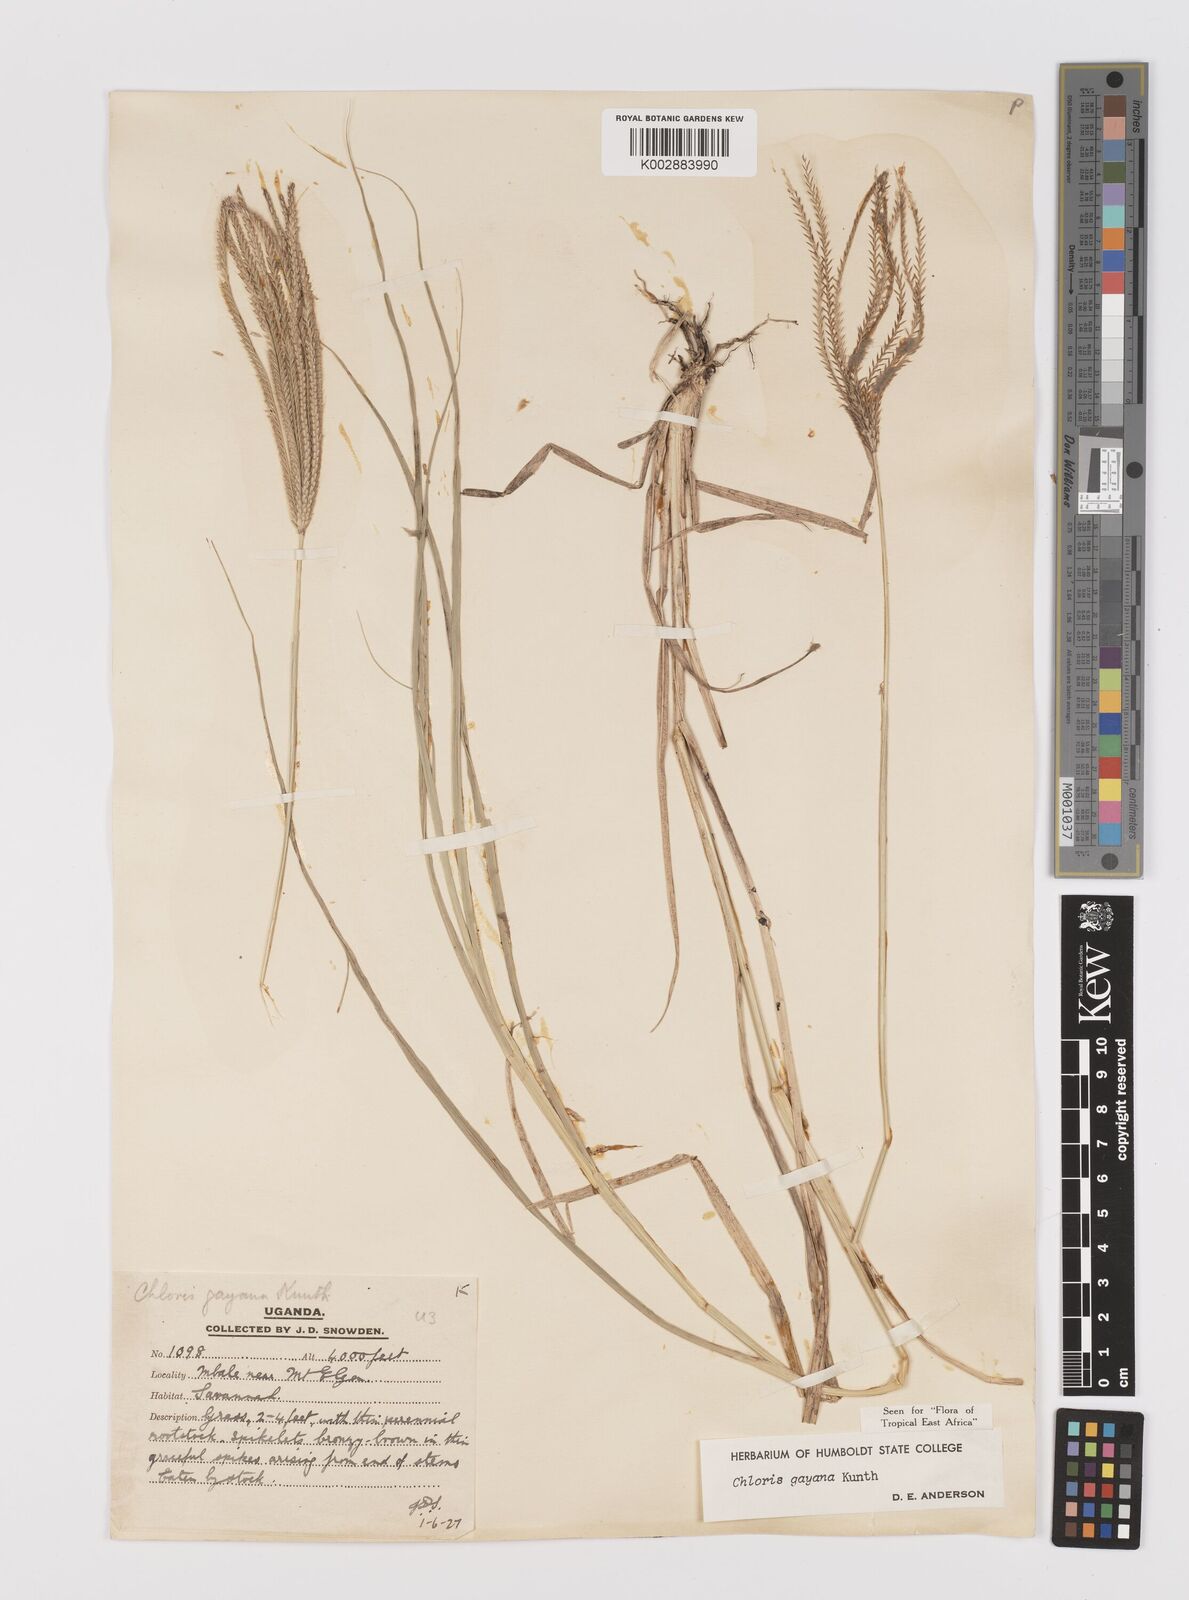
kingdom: Plantae
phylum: Tracheophyta
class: Liliopsida
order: Poales
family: Poaceae
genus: Chloris
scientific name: Chloris gayana
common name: Rhodes grass
